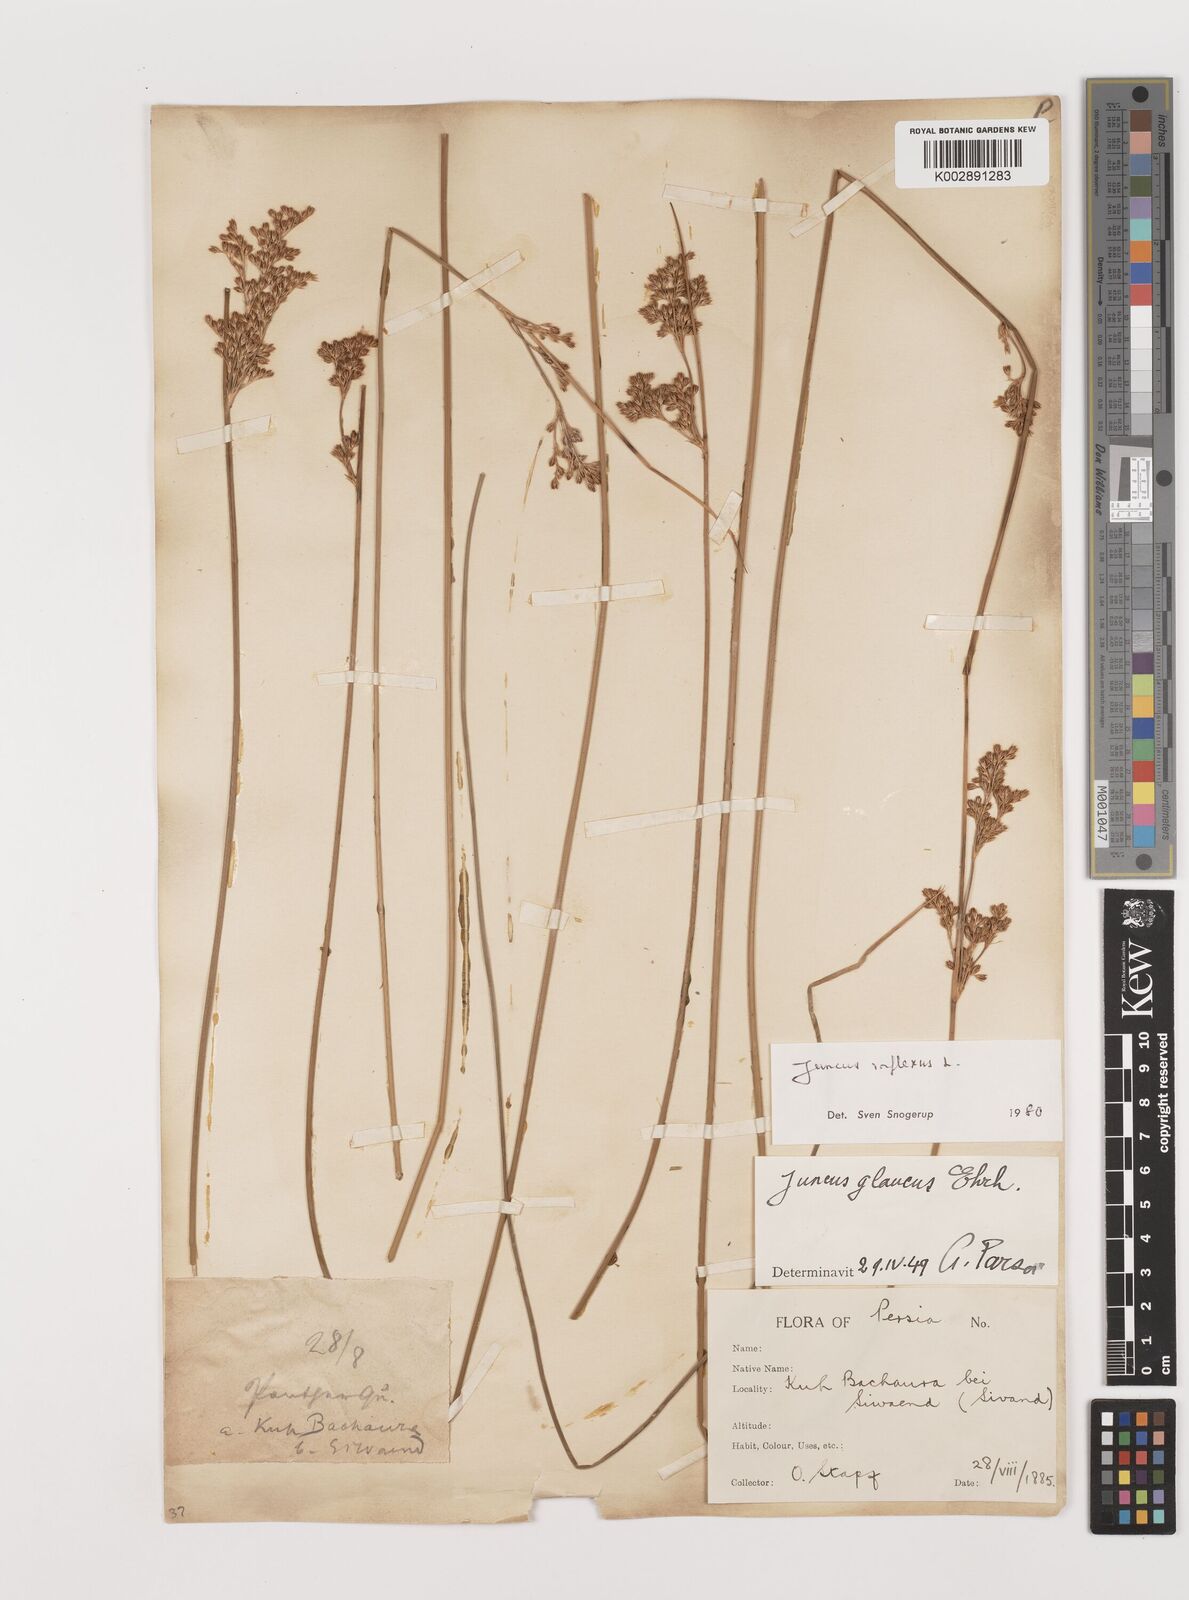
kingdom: Plantae
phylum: Tracheophyta
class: Liliopsida
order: Poales
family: Juncaceae
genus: Juncus
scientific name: Juncus inflexus
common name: Hard rush
